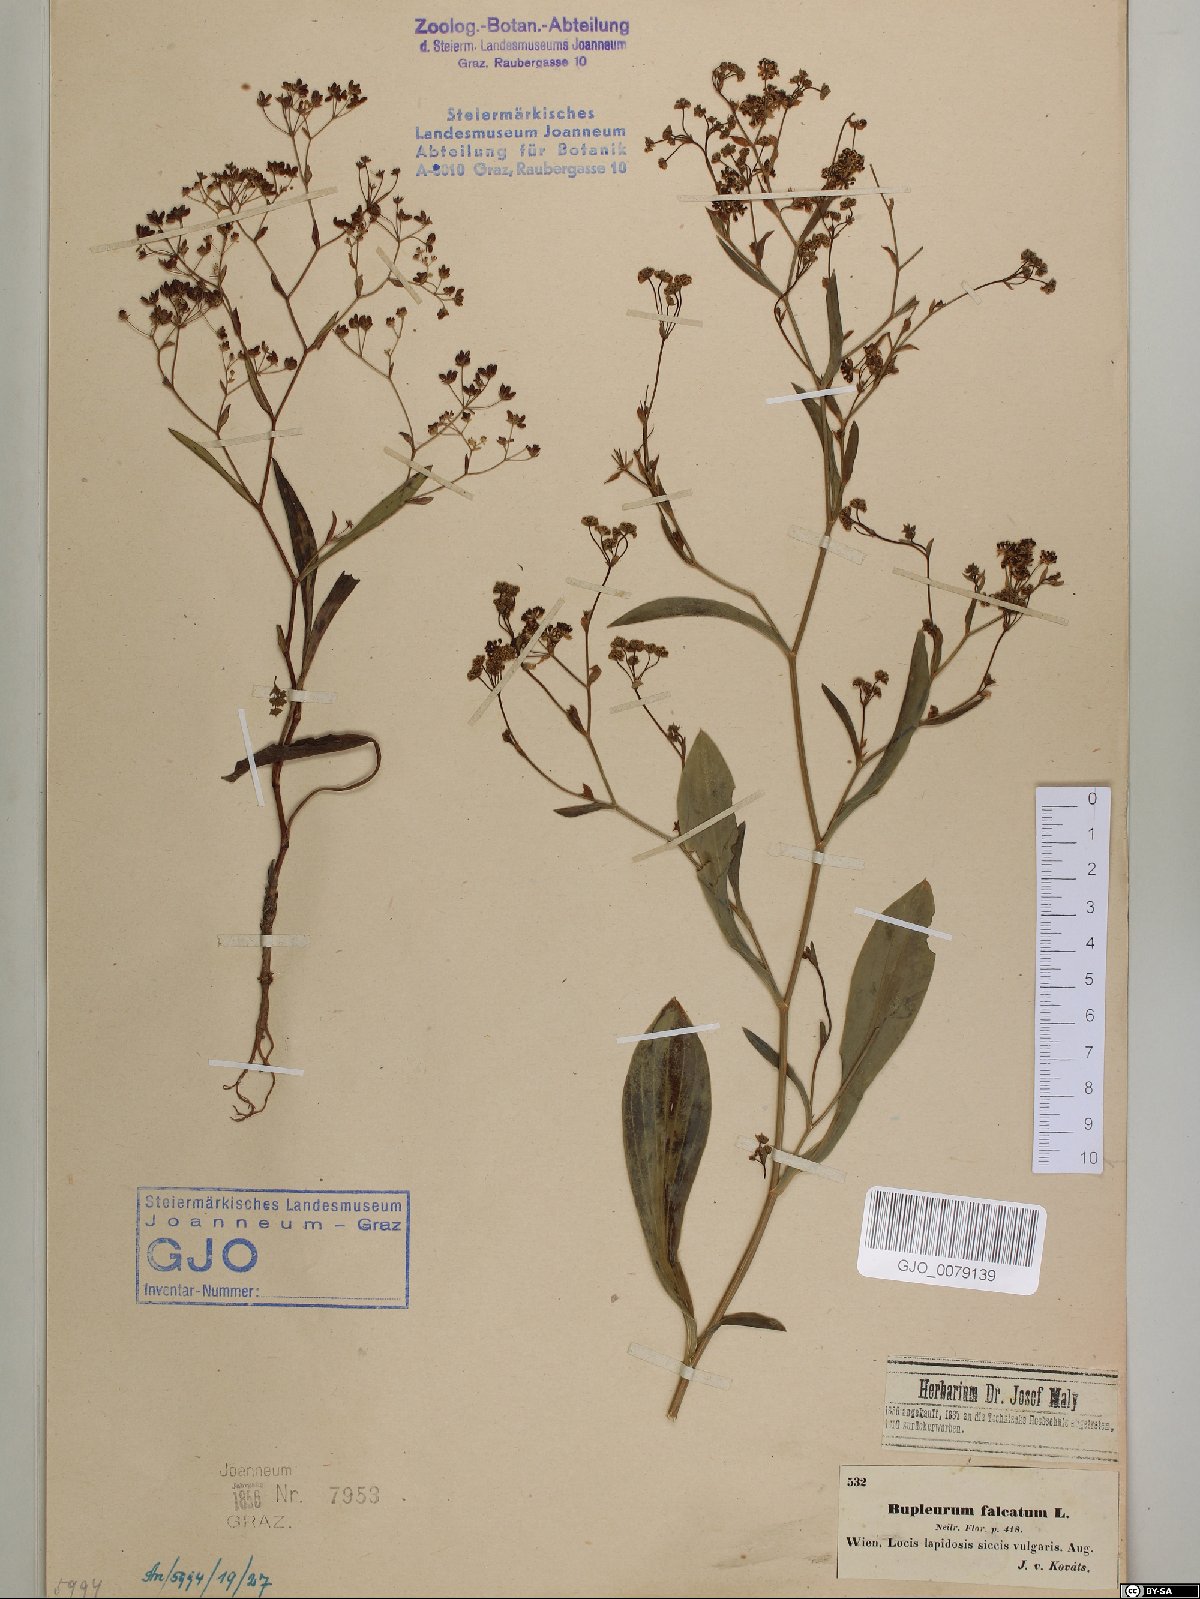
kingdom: Plantae
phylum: Tracheophyta
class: Magnoliopsida
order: Apiales
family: Apiaceae
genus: Bupleurum
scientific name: Bupleurum falcatum
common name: Sickle-leaved hare's-ear
